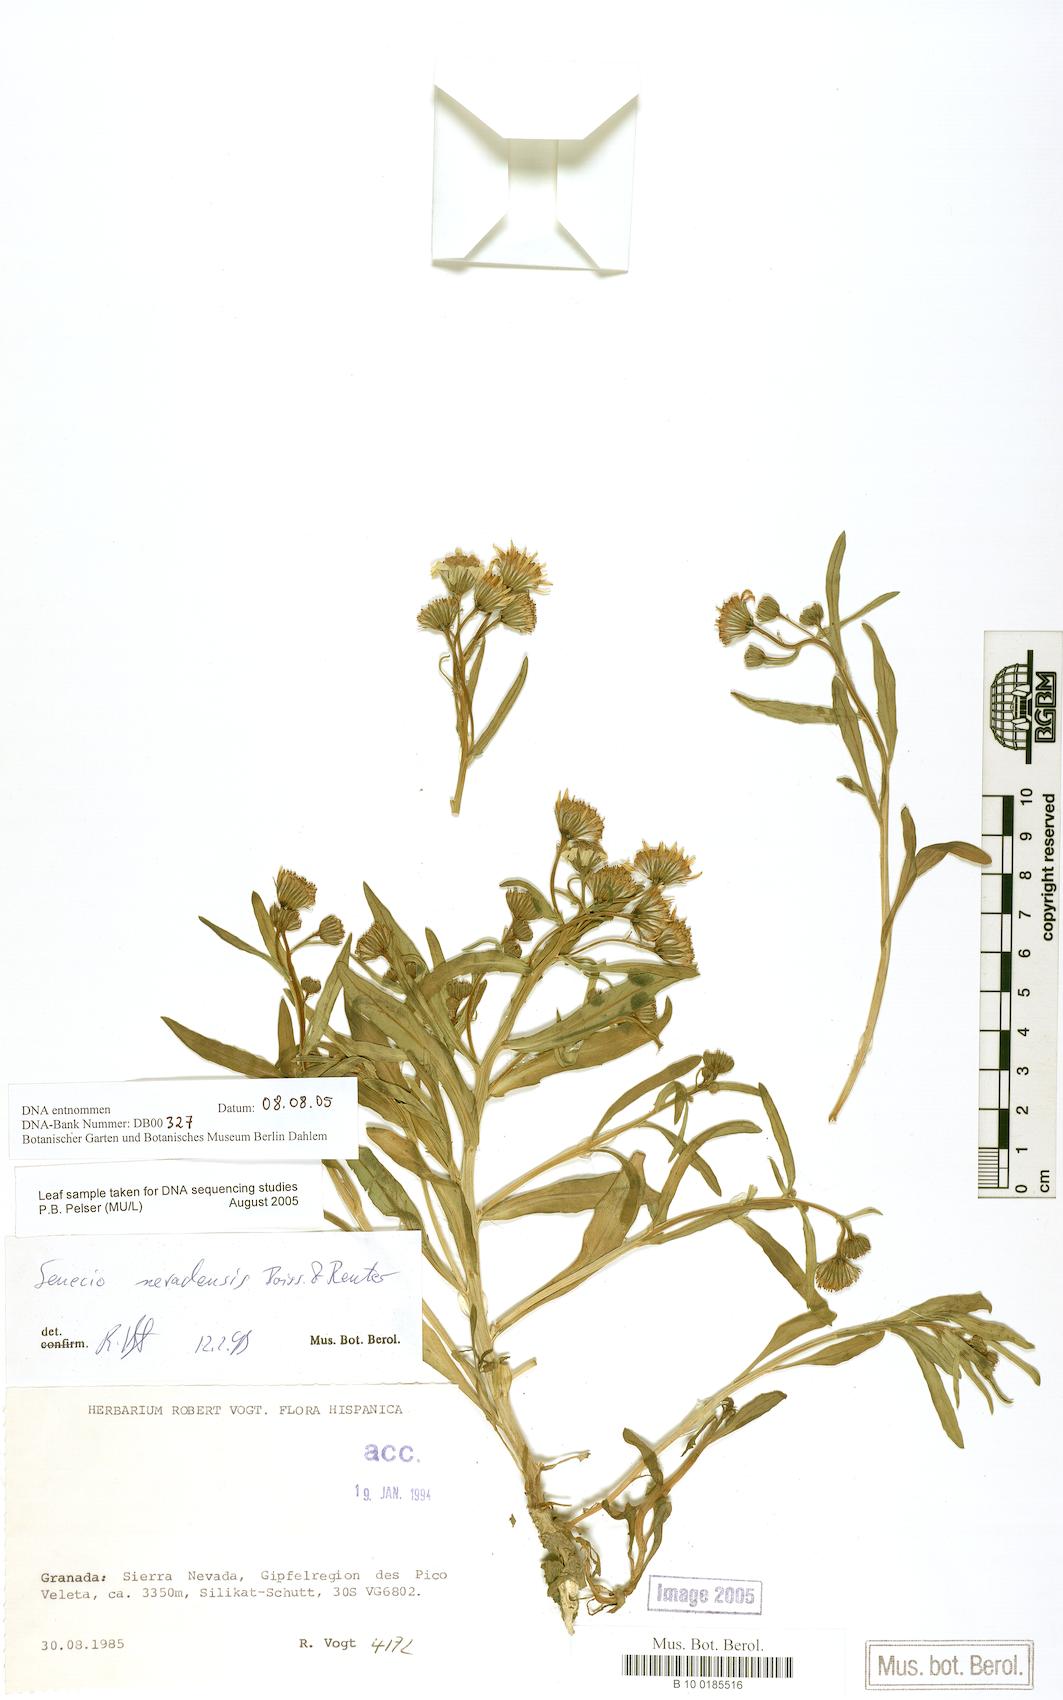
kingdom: Plantae
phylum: Tracheophyta
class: Magnoliopsida
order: Asterales
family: Asteraceae
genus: Senecio
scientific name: Senecio nevadensis
